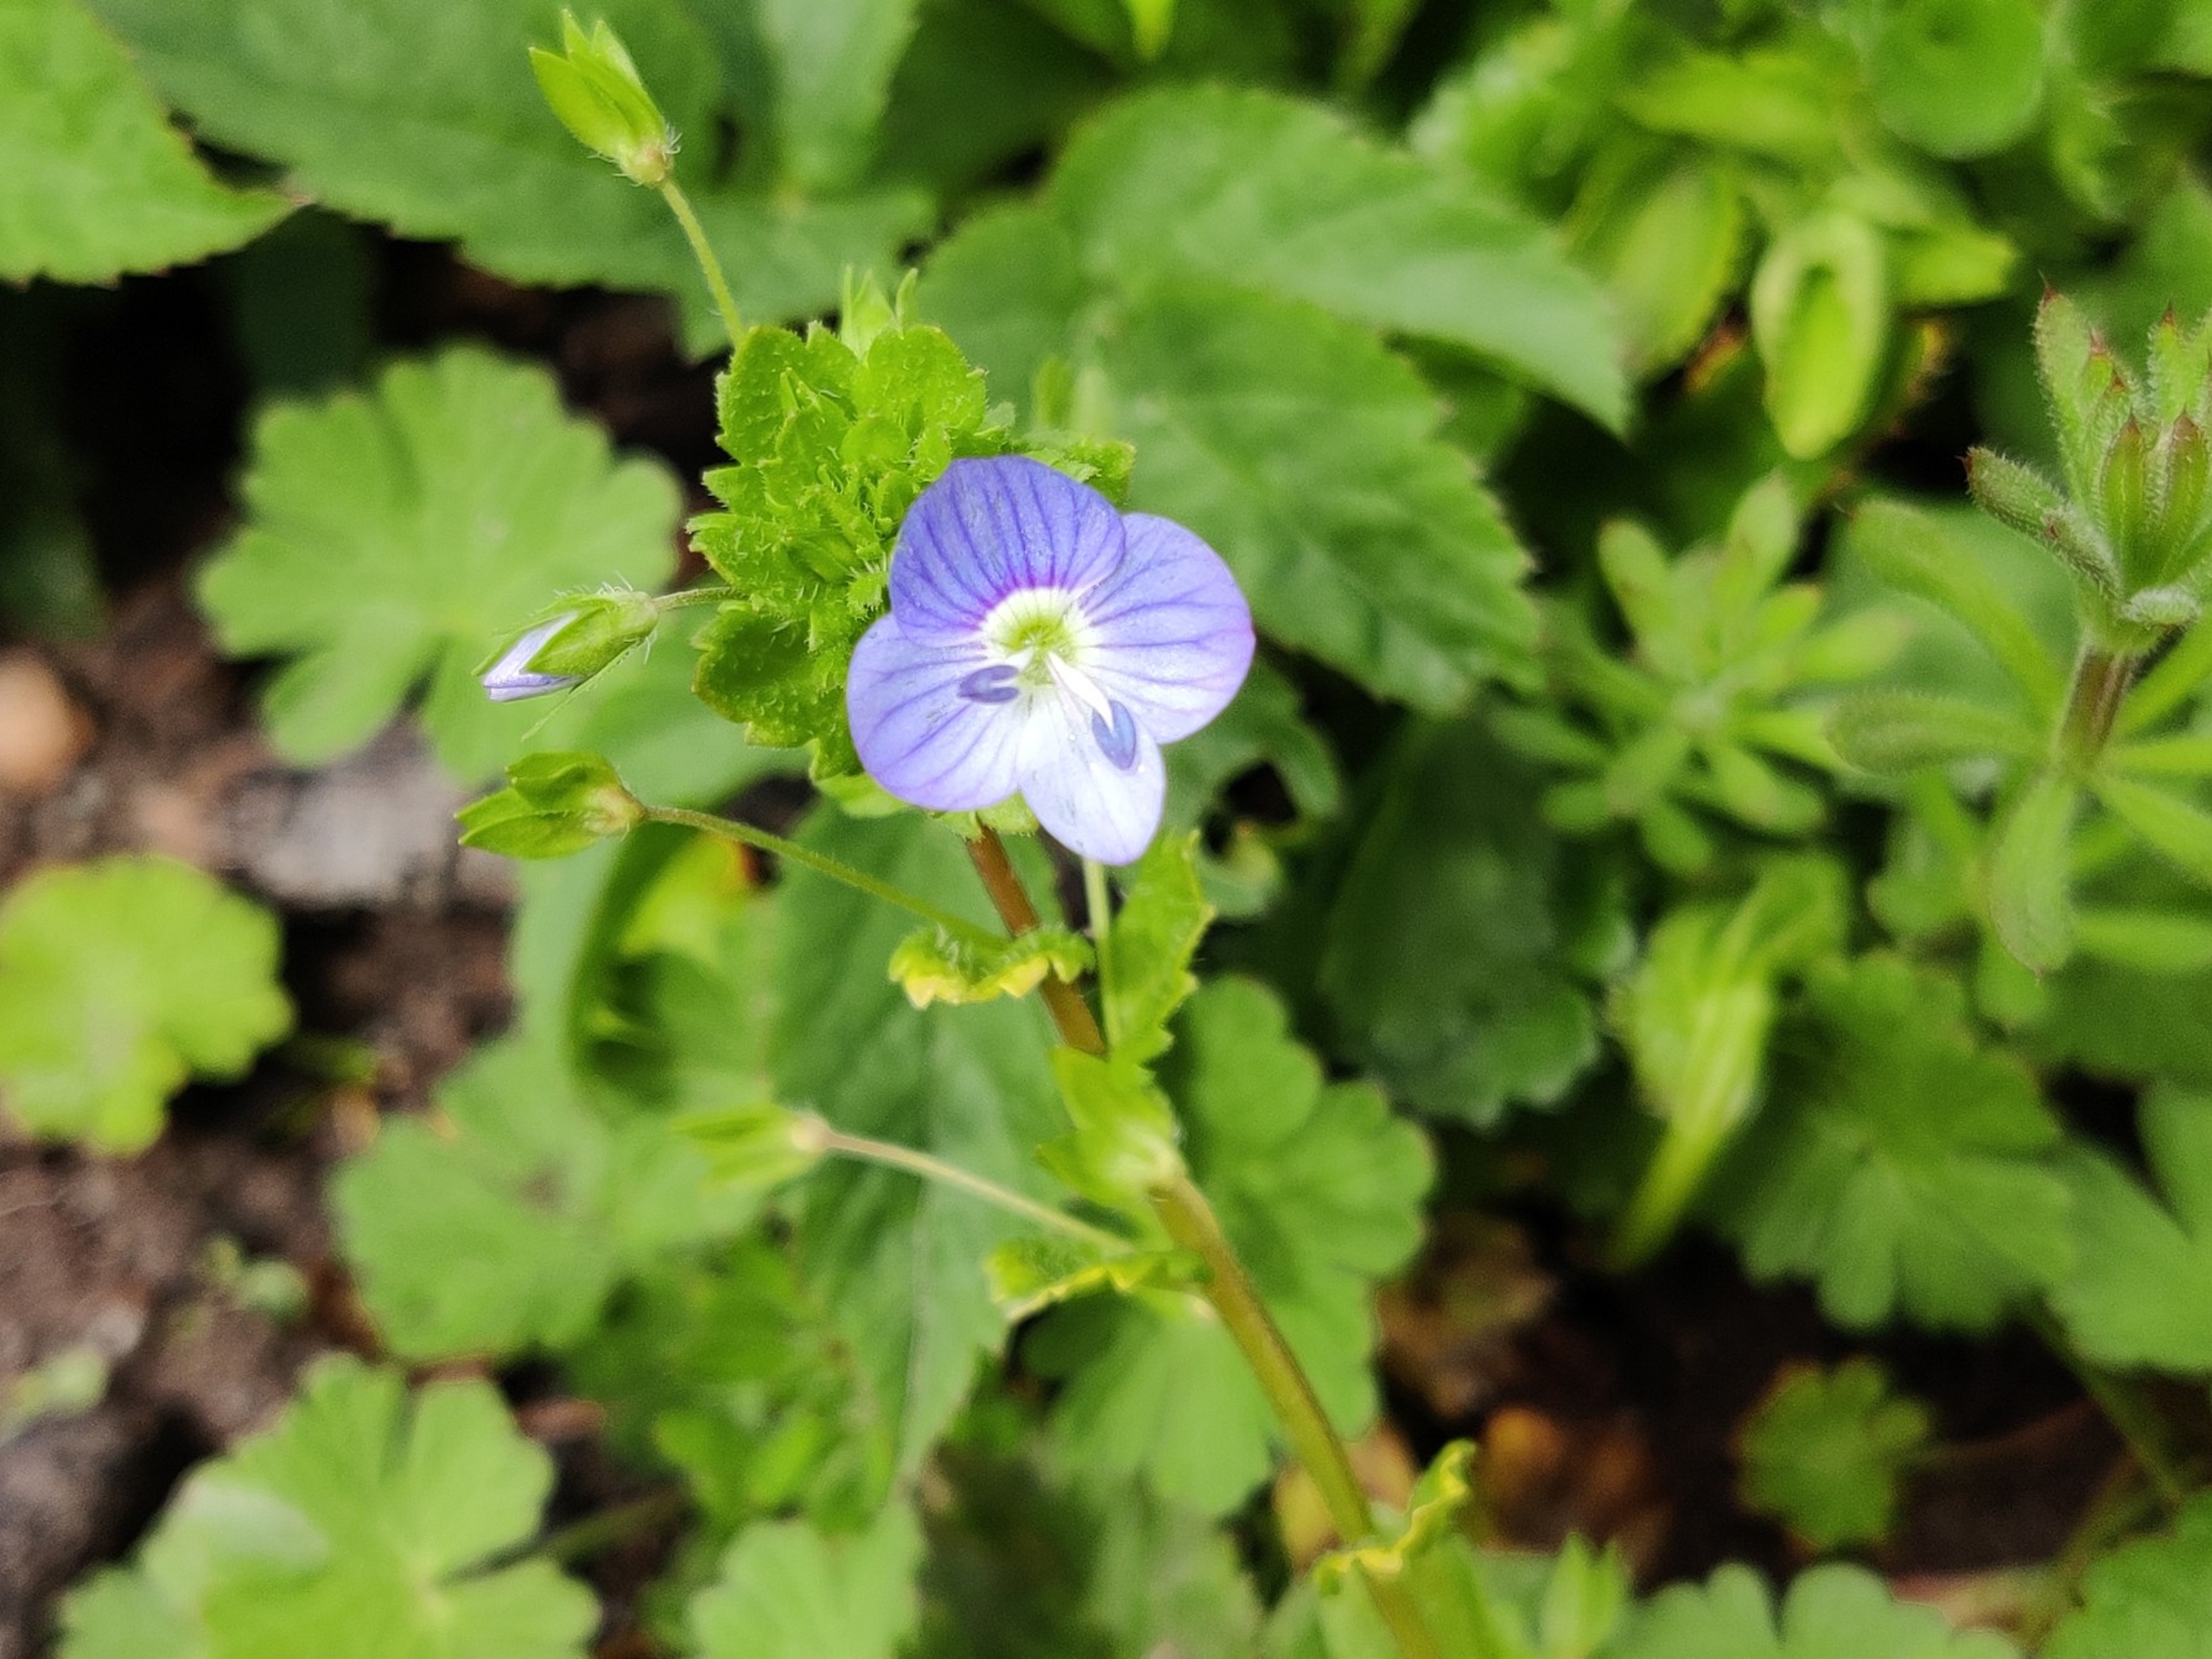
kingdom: Plantae
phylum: Tracheophyta
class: Magnoliopsida
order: Lamiales
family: Plantaginaceae
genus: Veronica
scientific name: Veronica persica
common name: Storkronet ærenpris
